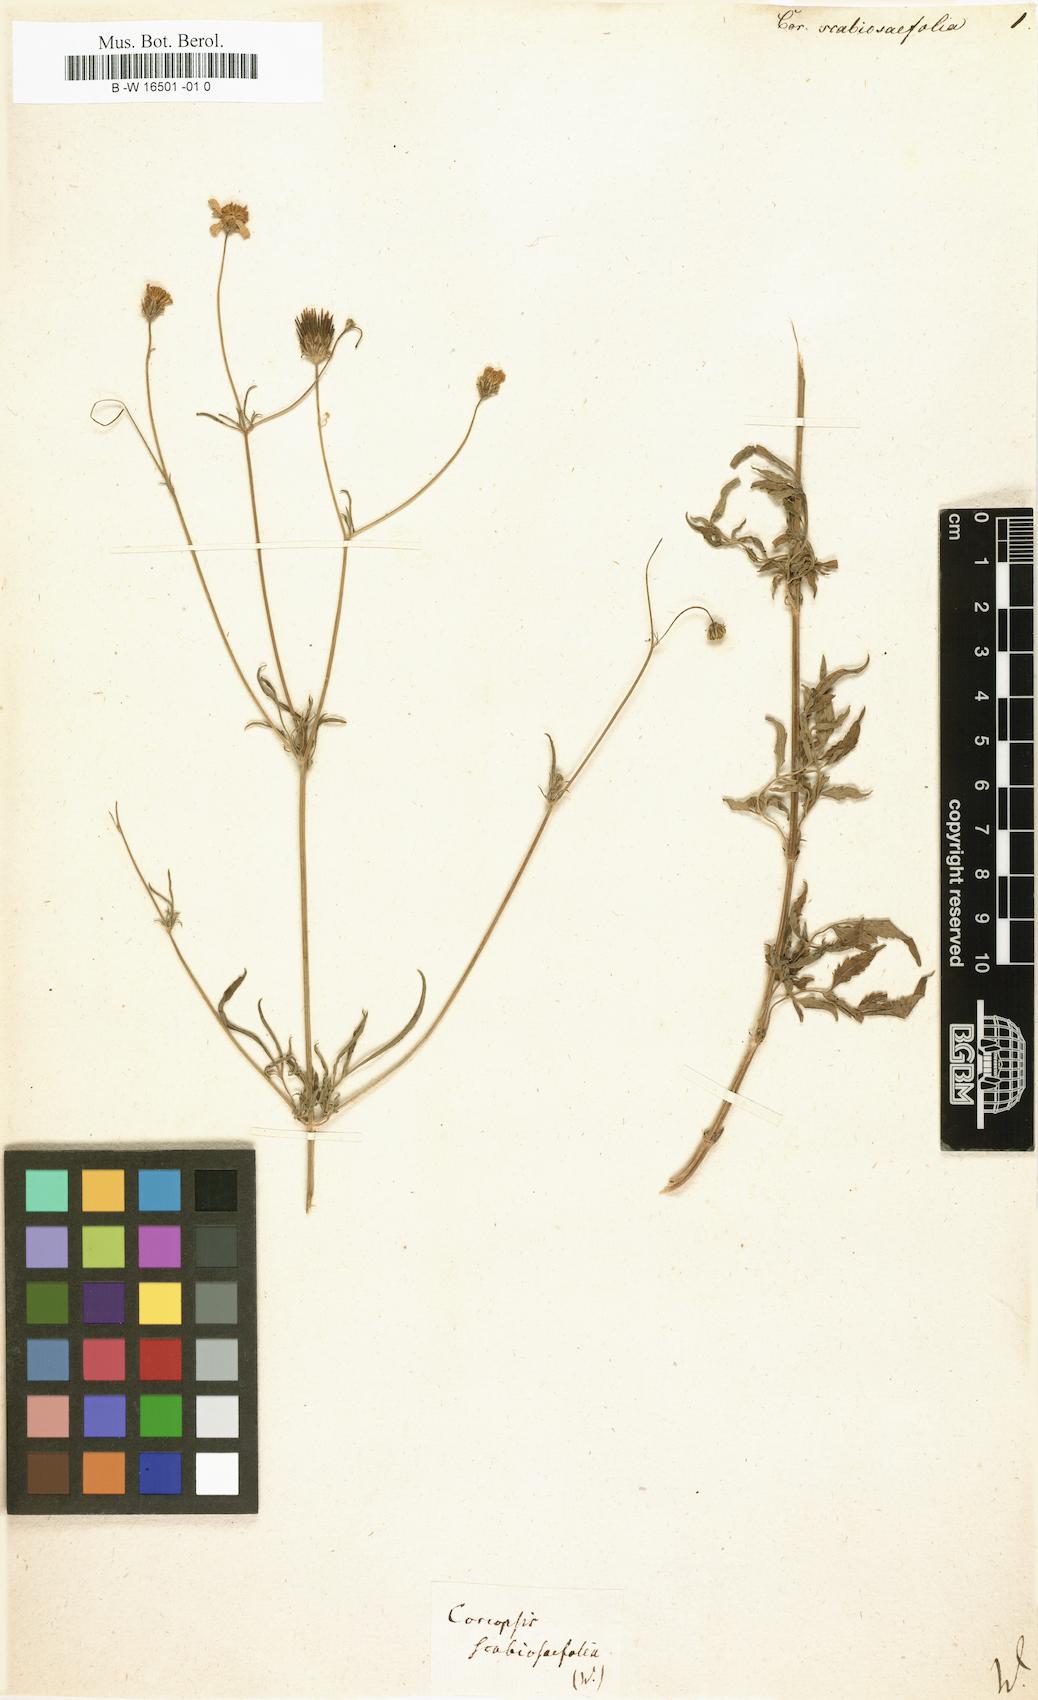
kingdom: Plantae
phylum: Tracheophyta
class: Magnoliopsida
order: Asterales
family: Asteraceae
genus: Coreopsis
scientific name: Coreopsis
